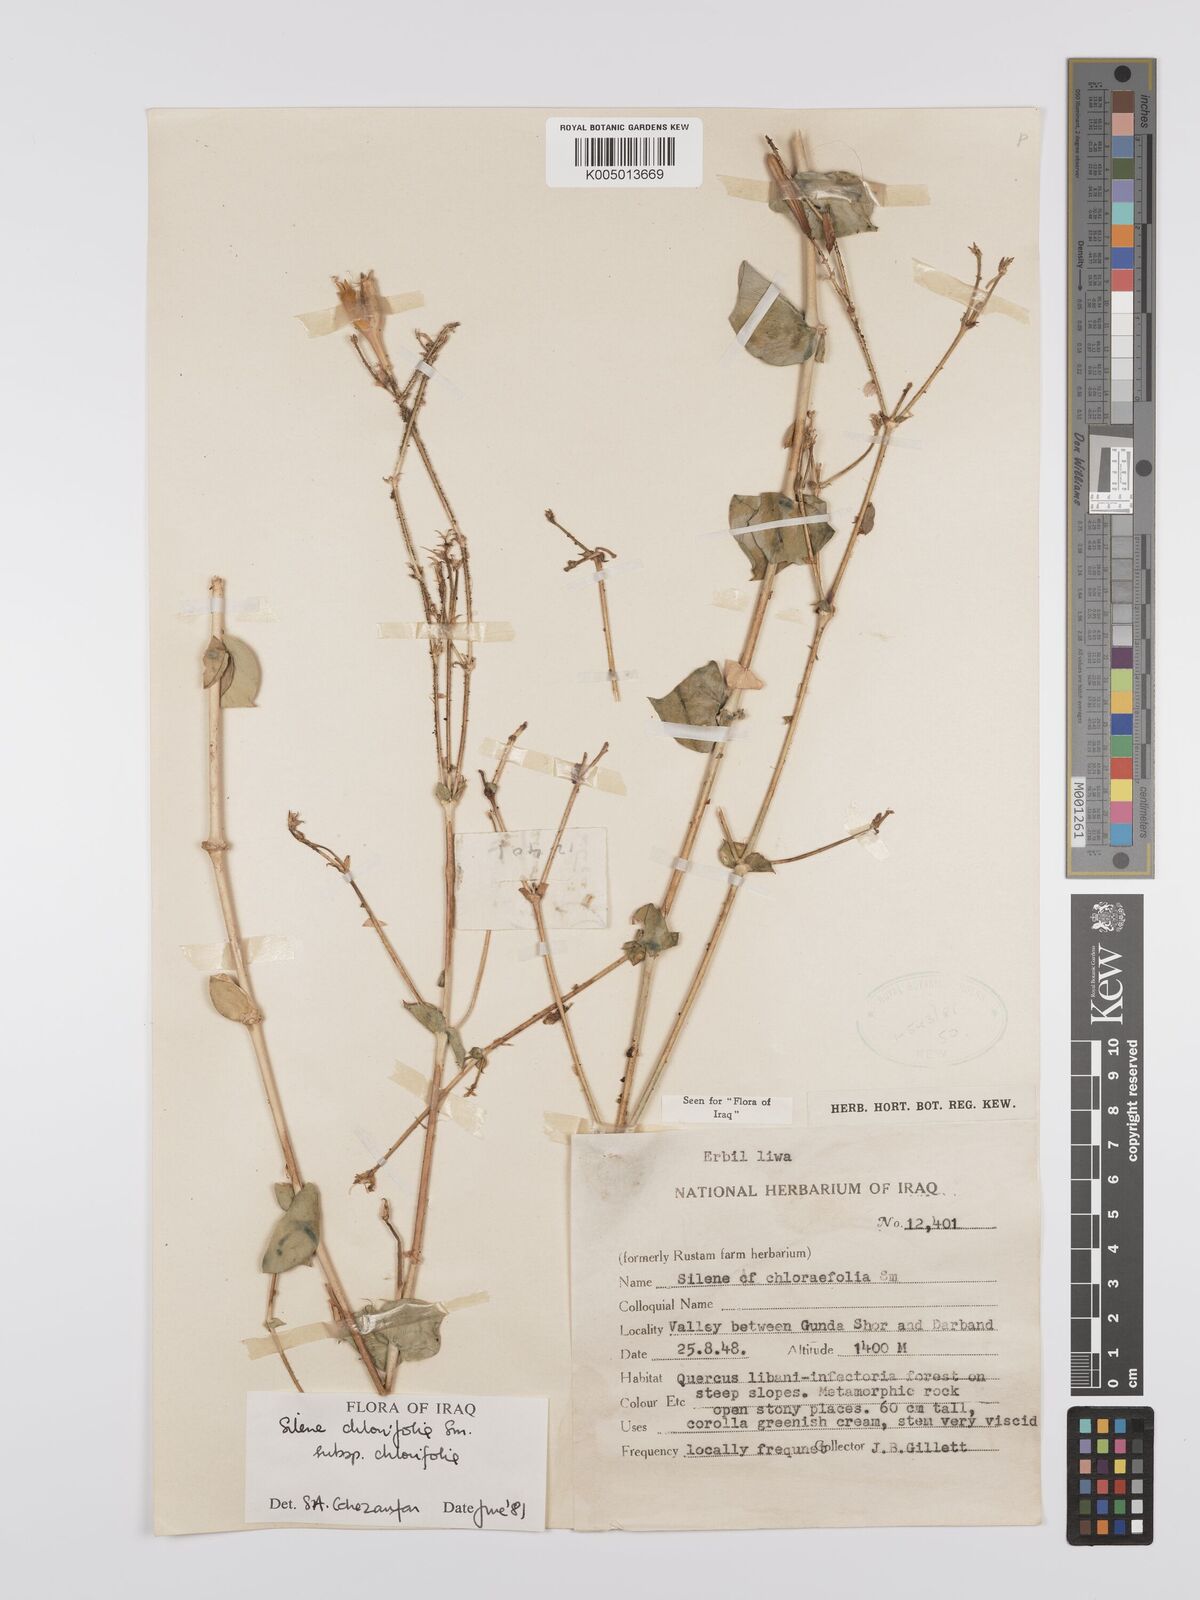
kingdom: Plantae
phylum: Tracheophyta
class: Magnoliopsida
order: Caryophyllales
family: Caryophyllaceae
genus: Silene
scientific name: Silene chlorifolia
